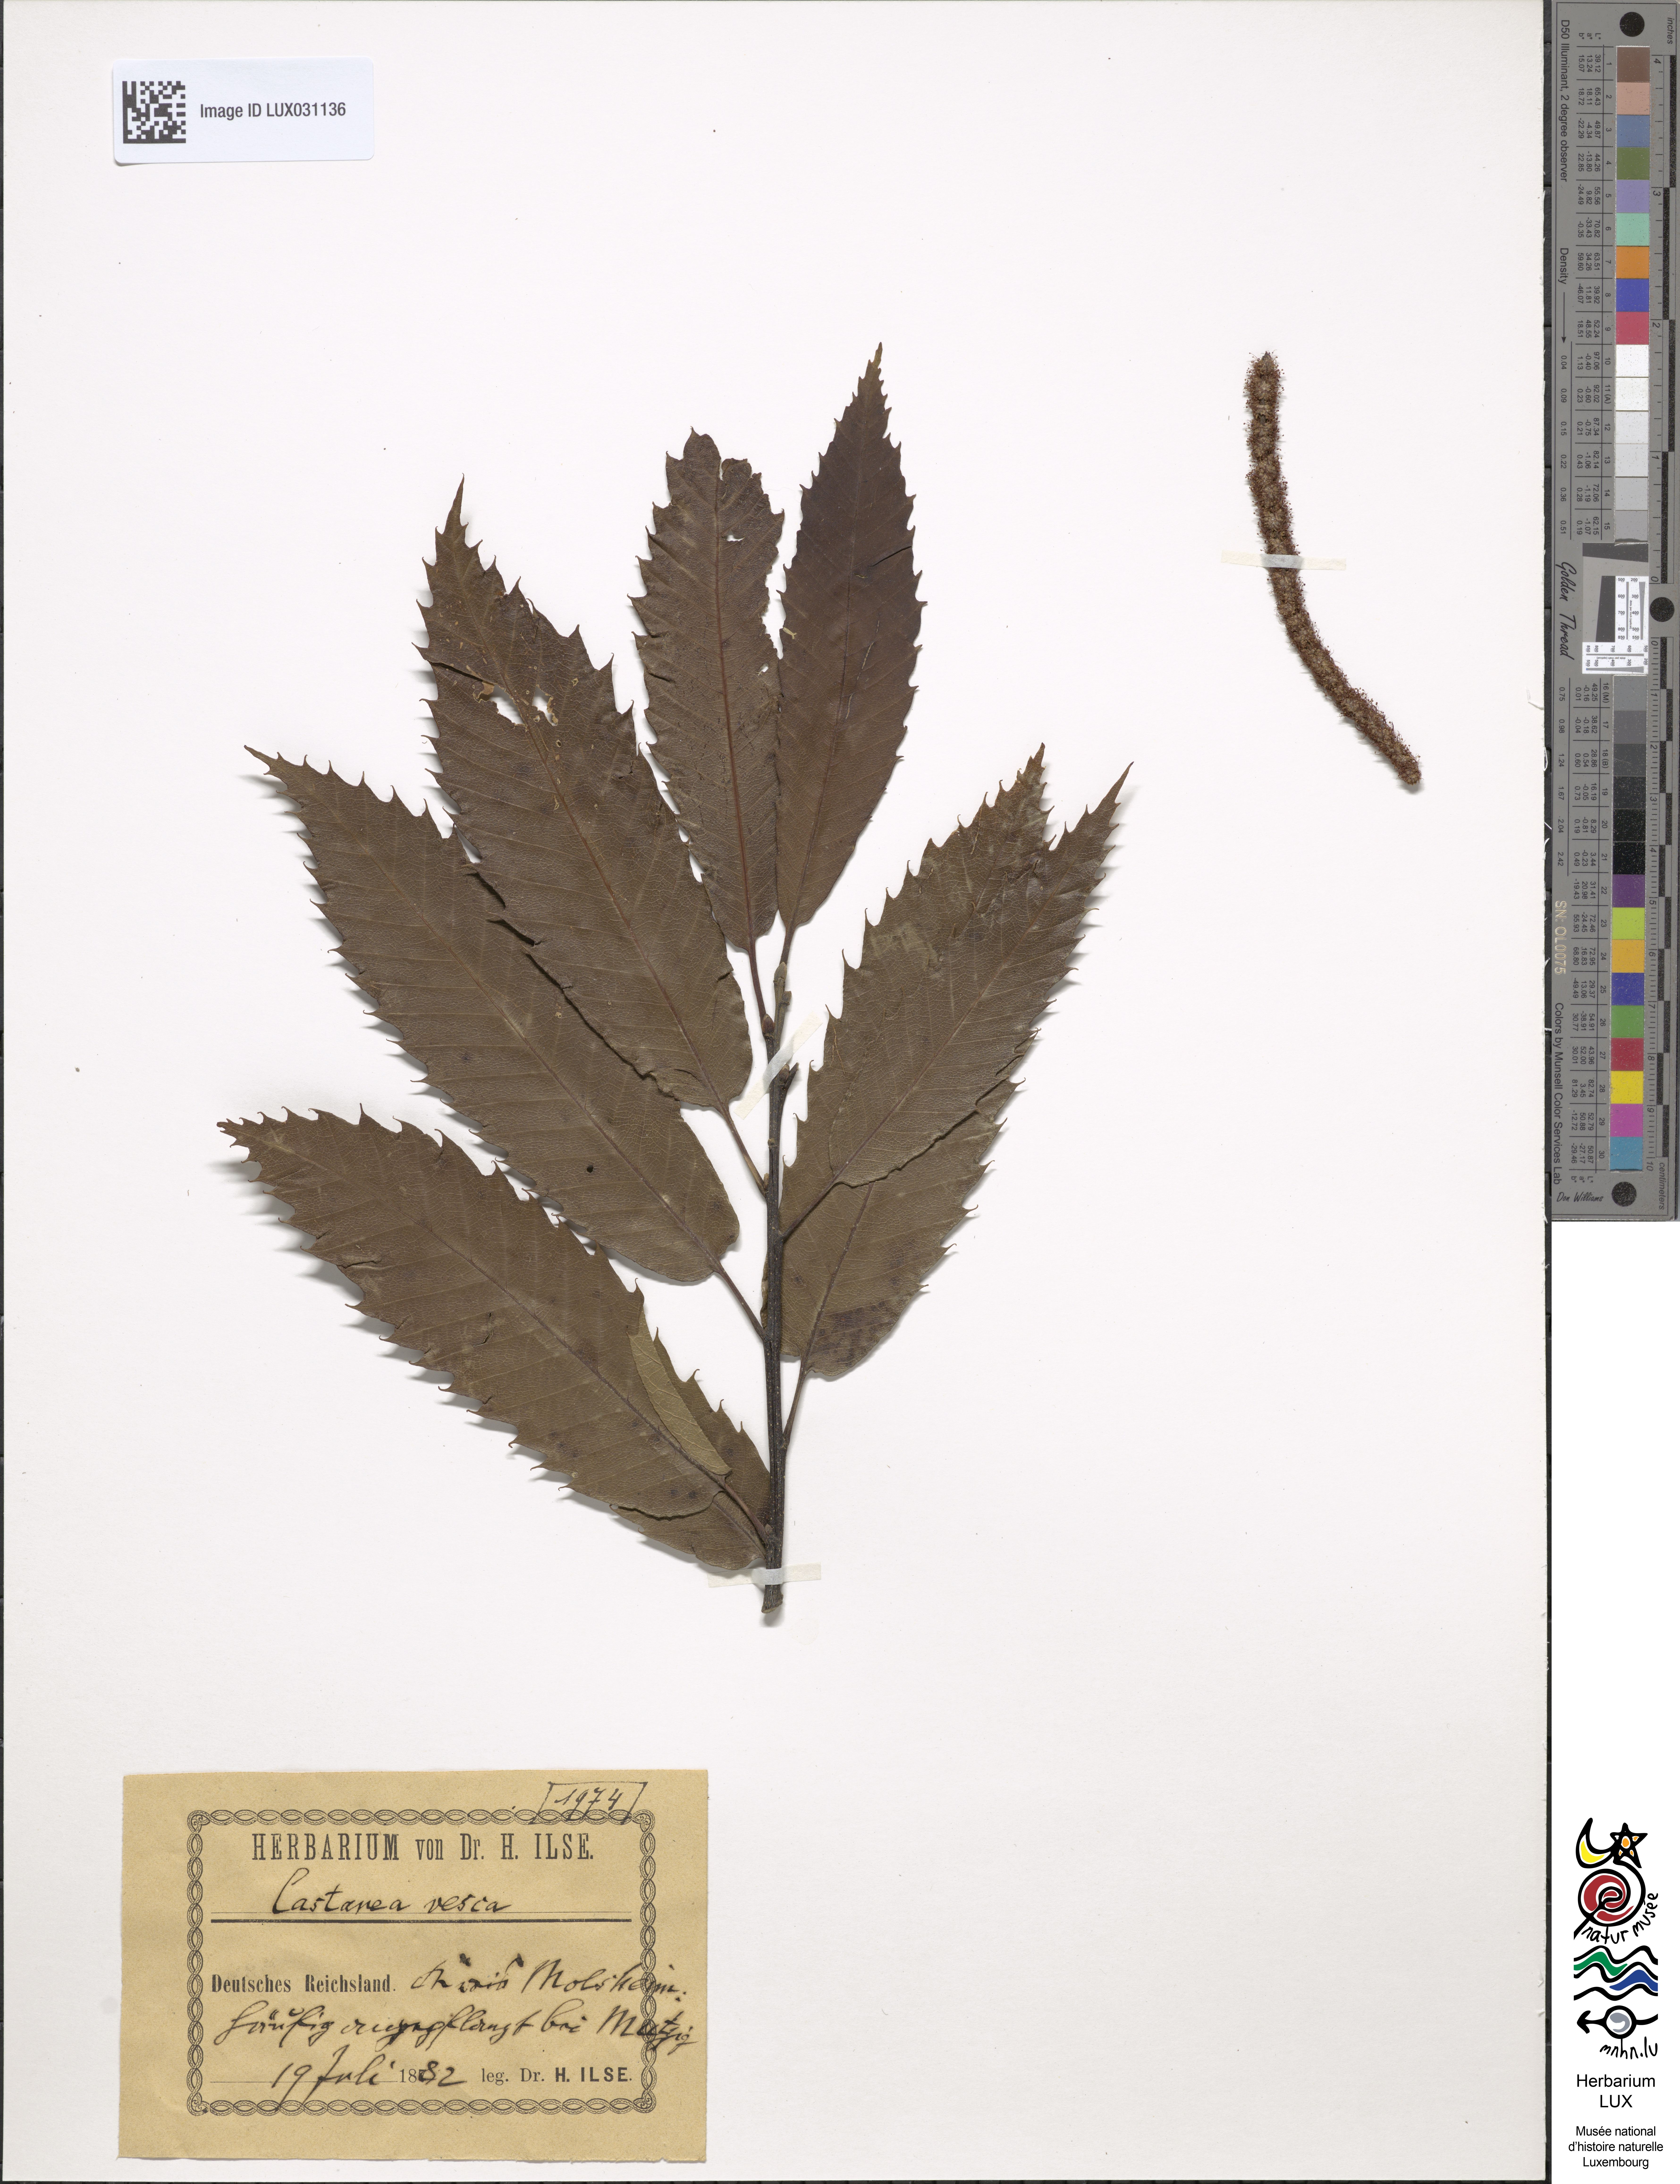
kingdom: Plantae
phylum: Tracheophyta
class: Magnoliopsida
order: Fagales
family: Fagaceae
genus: Castanea
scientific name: Castanea sativa
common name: Sweet chestnut
